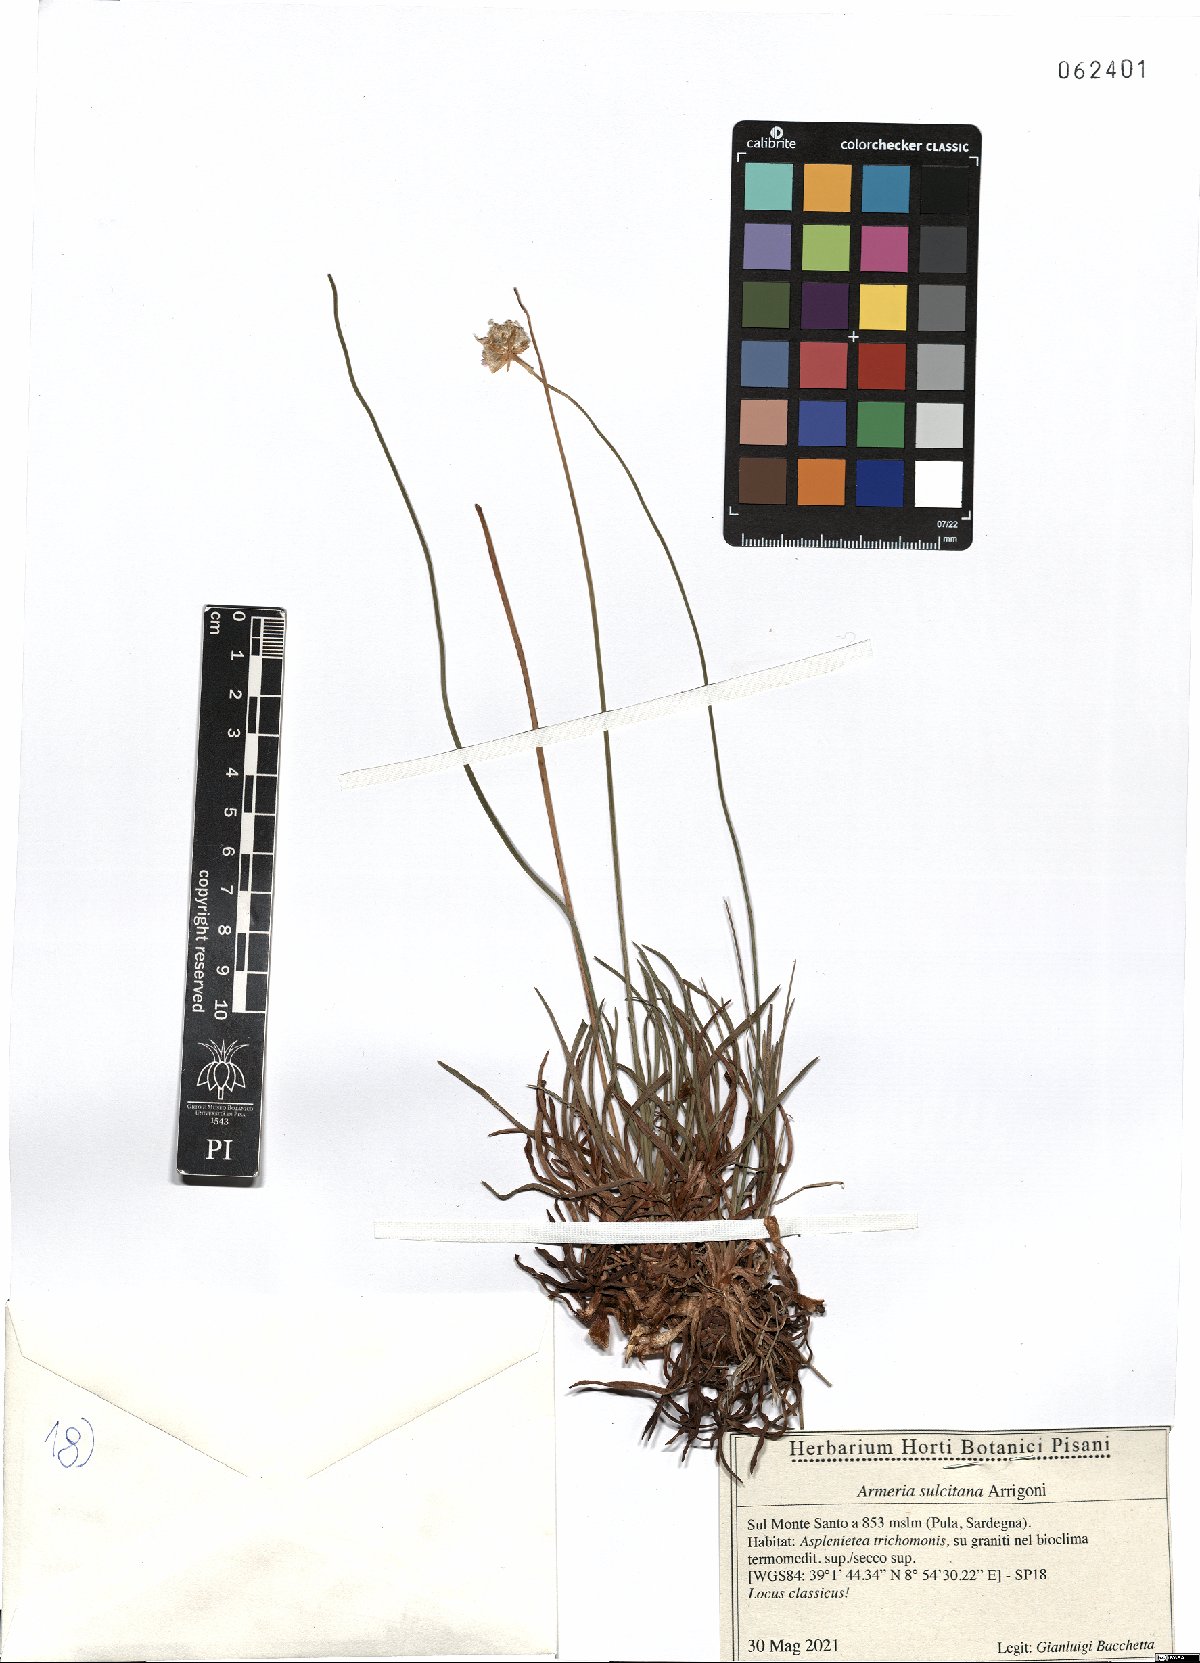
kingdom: Plantae
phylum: Tracheophyta
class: Magnoliopsida
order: Caryophyllales
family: Plumbaginaceae
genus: Armeria
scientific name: Armeria sulcitana
